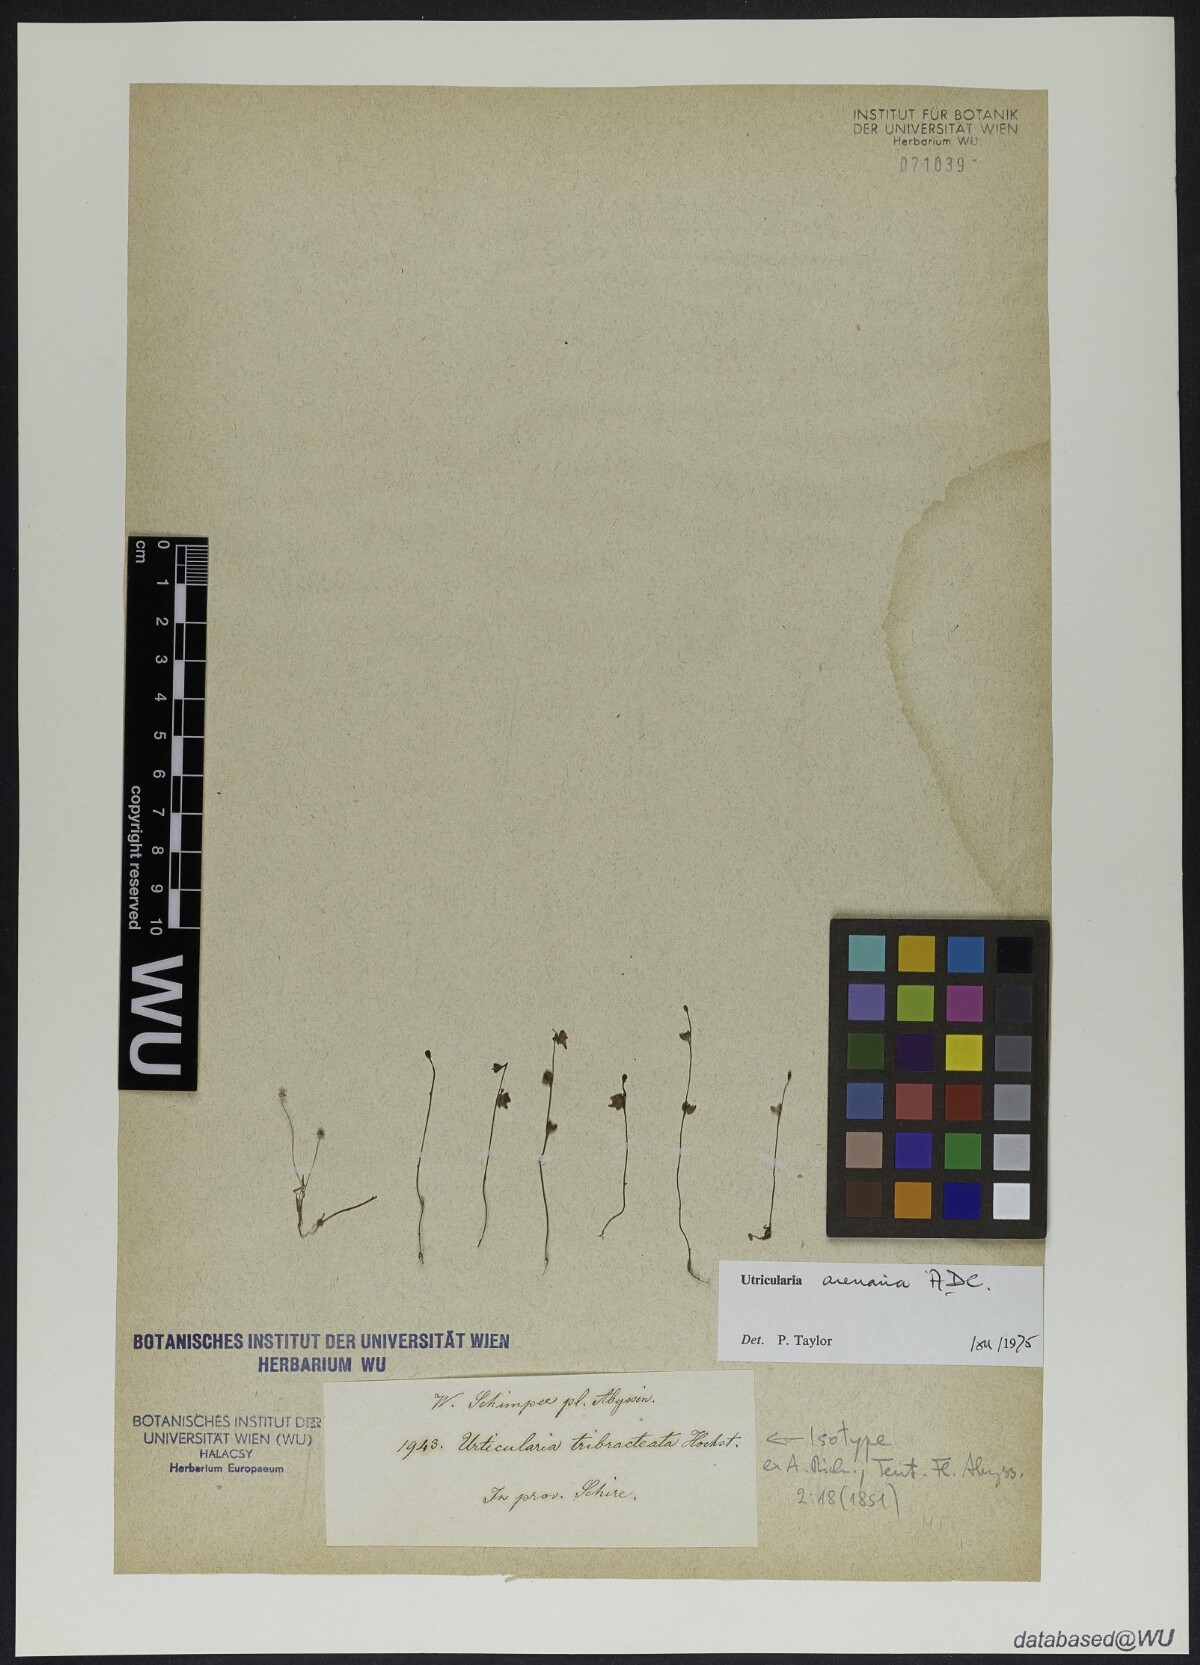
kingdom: Plantae
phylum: Tracheophyta
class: Magnoliopsida
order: Lamiales
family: Lentibulariaceae
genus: Utricularia
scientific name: Utricularia arenaria
